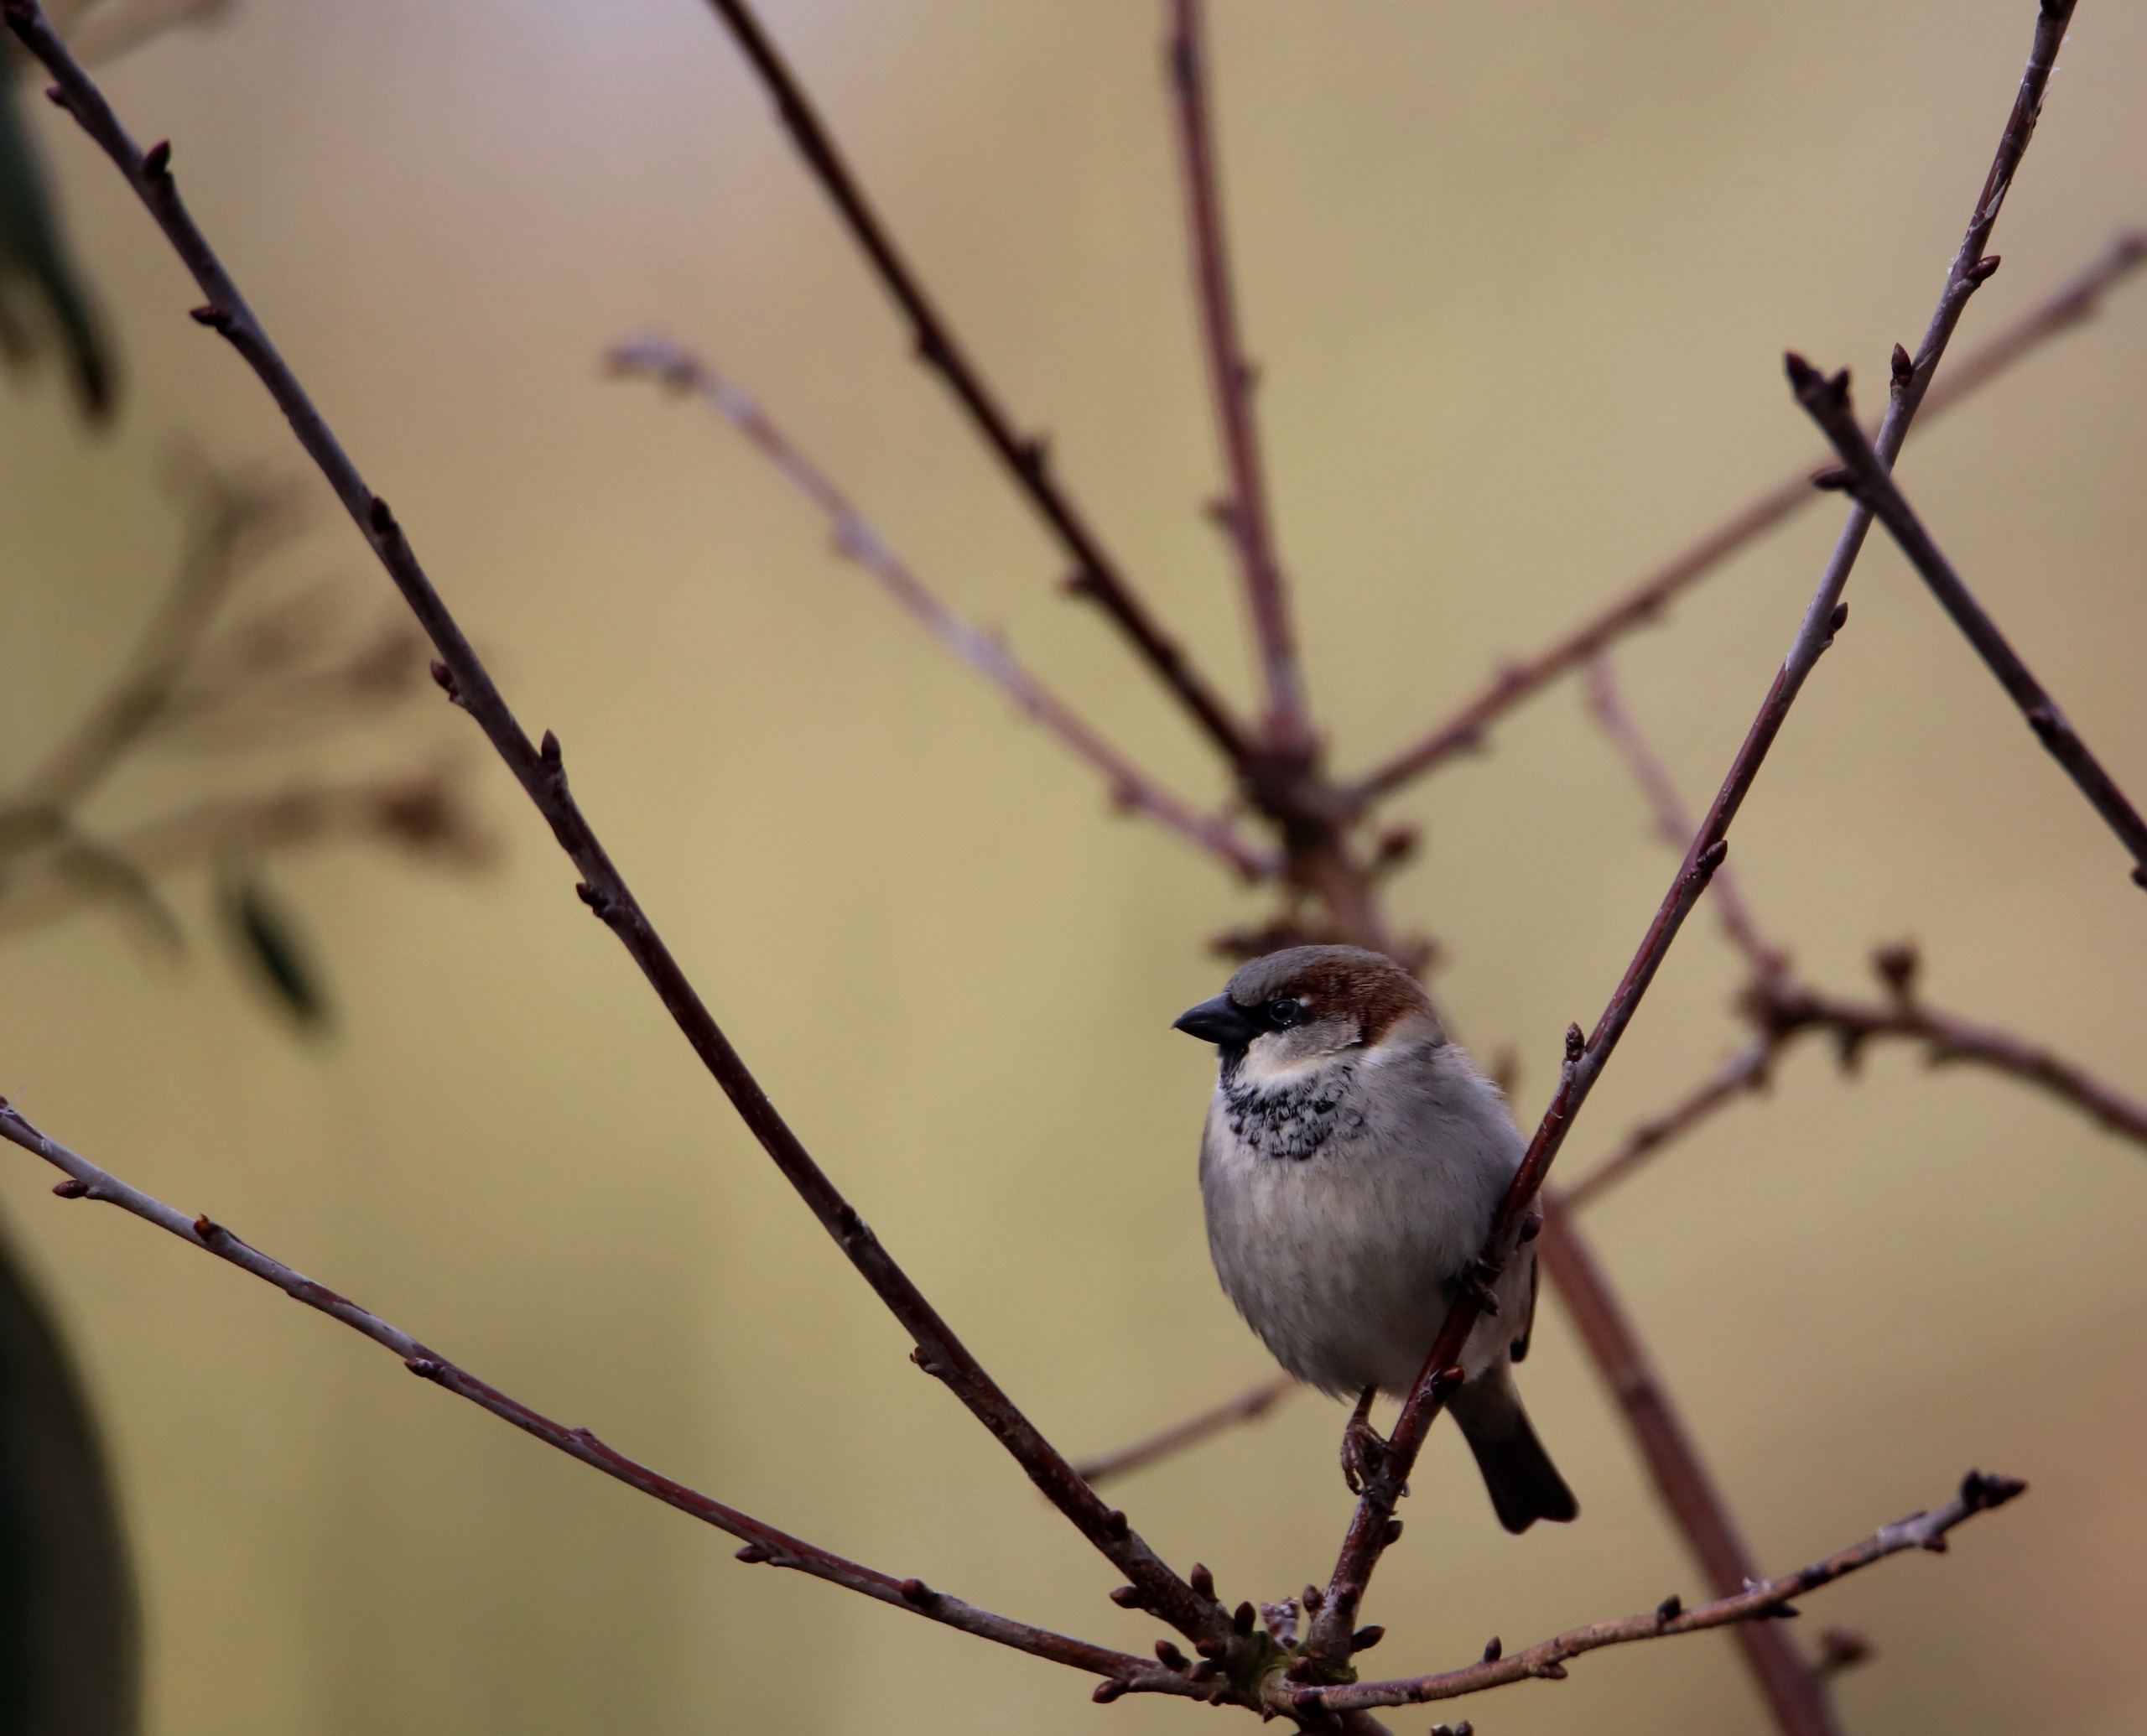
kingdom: Animalia
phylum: Chordata
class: Aves
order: Passeriformes
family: Passeridae
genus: Passer
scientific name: Passer domesticus
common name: Gråspurv
